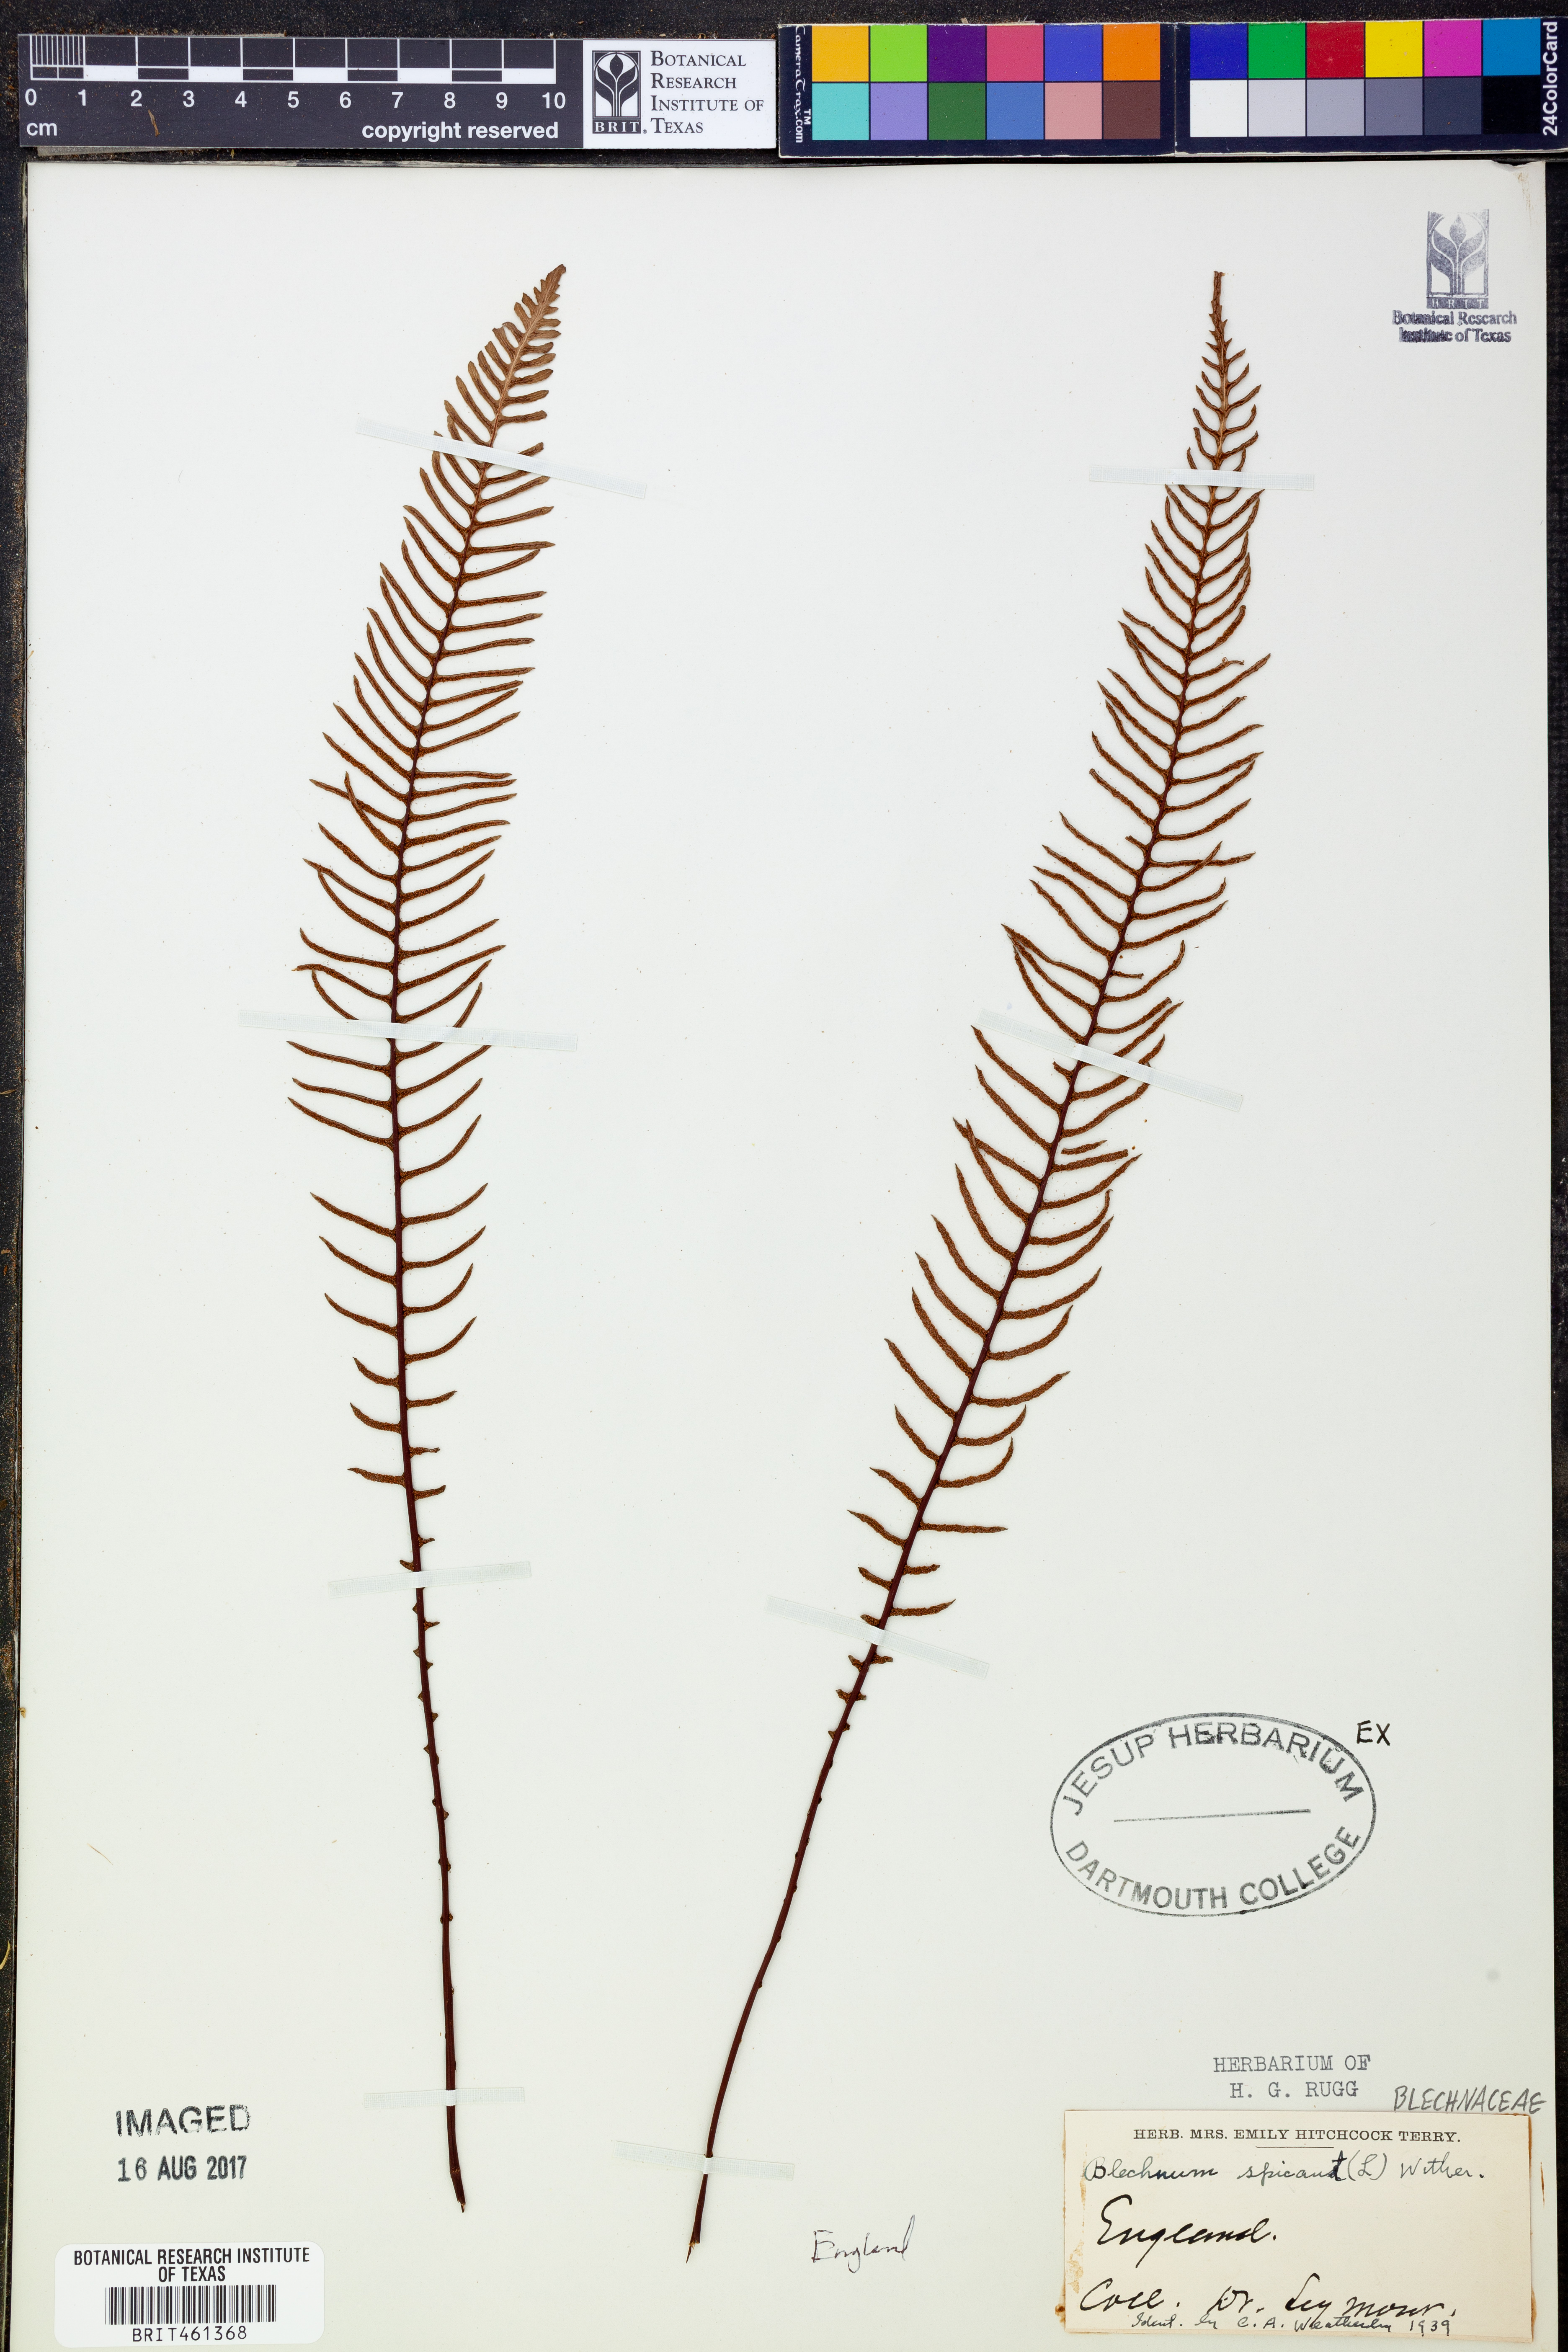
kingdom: Plantae
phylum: Tracheophyta
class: Polypodiopsida
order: Polypodiales
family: Blechnaceae
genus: Struthiopteris
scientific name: Struthiopteris spicant
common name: Deer fern
